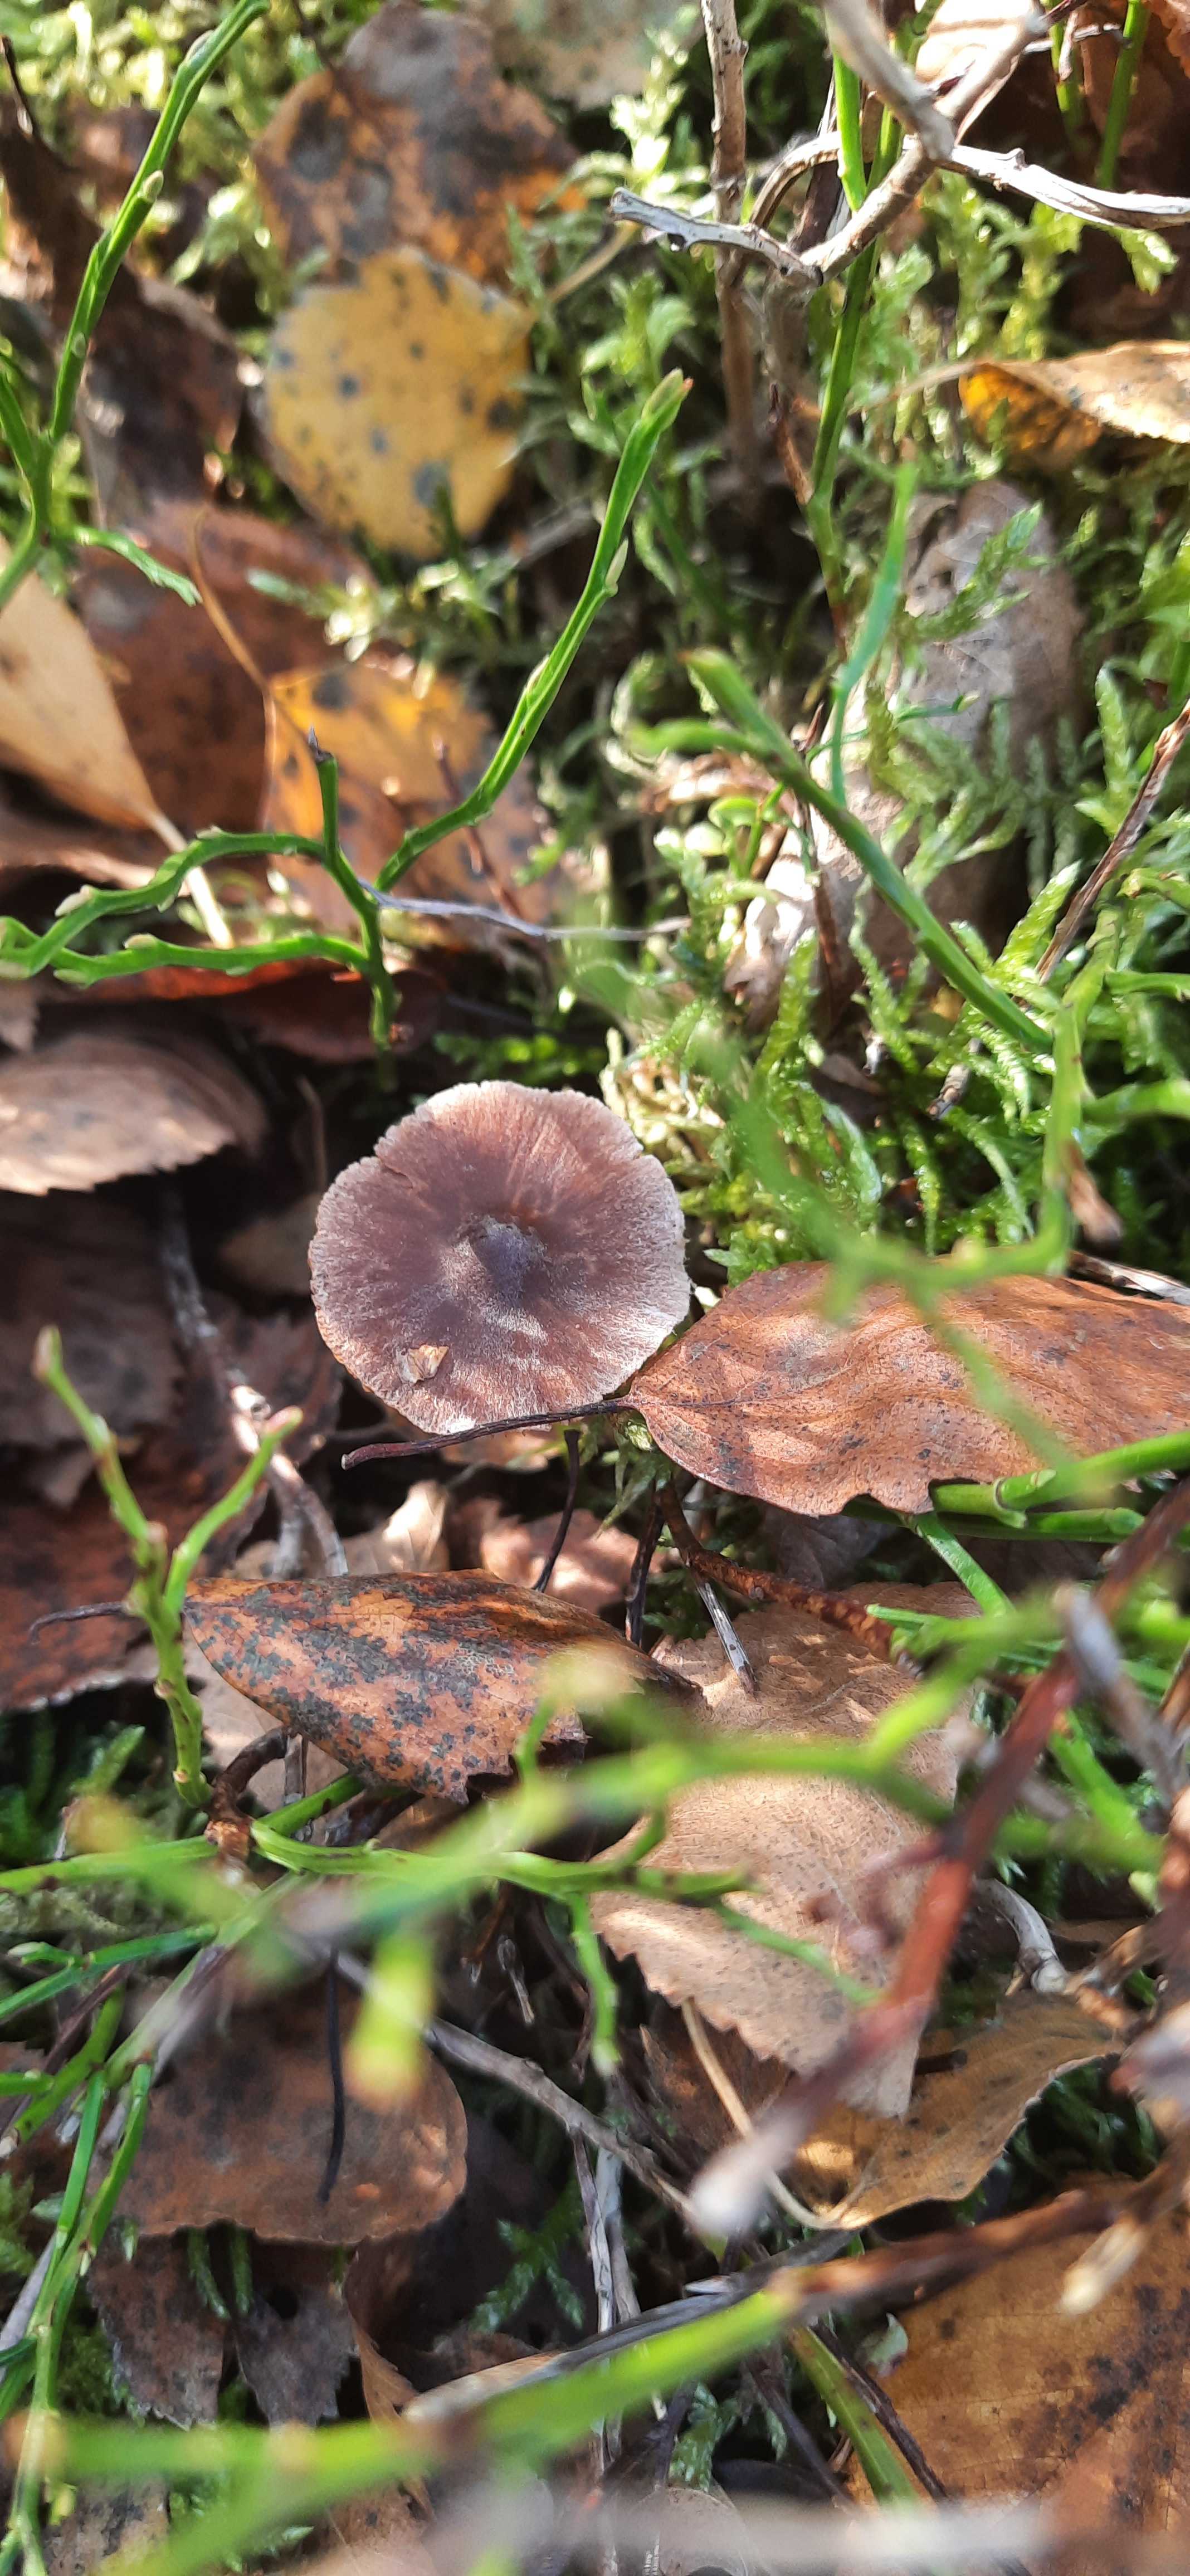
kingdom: Fungi
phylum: Basidiomycota
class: Agaricomycetes
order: Agaricales
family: Cortinariaceae
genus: Cortinarius
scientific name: Cortinarius
